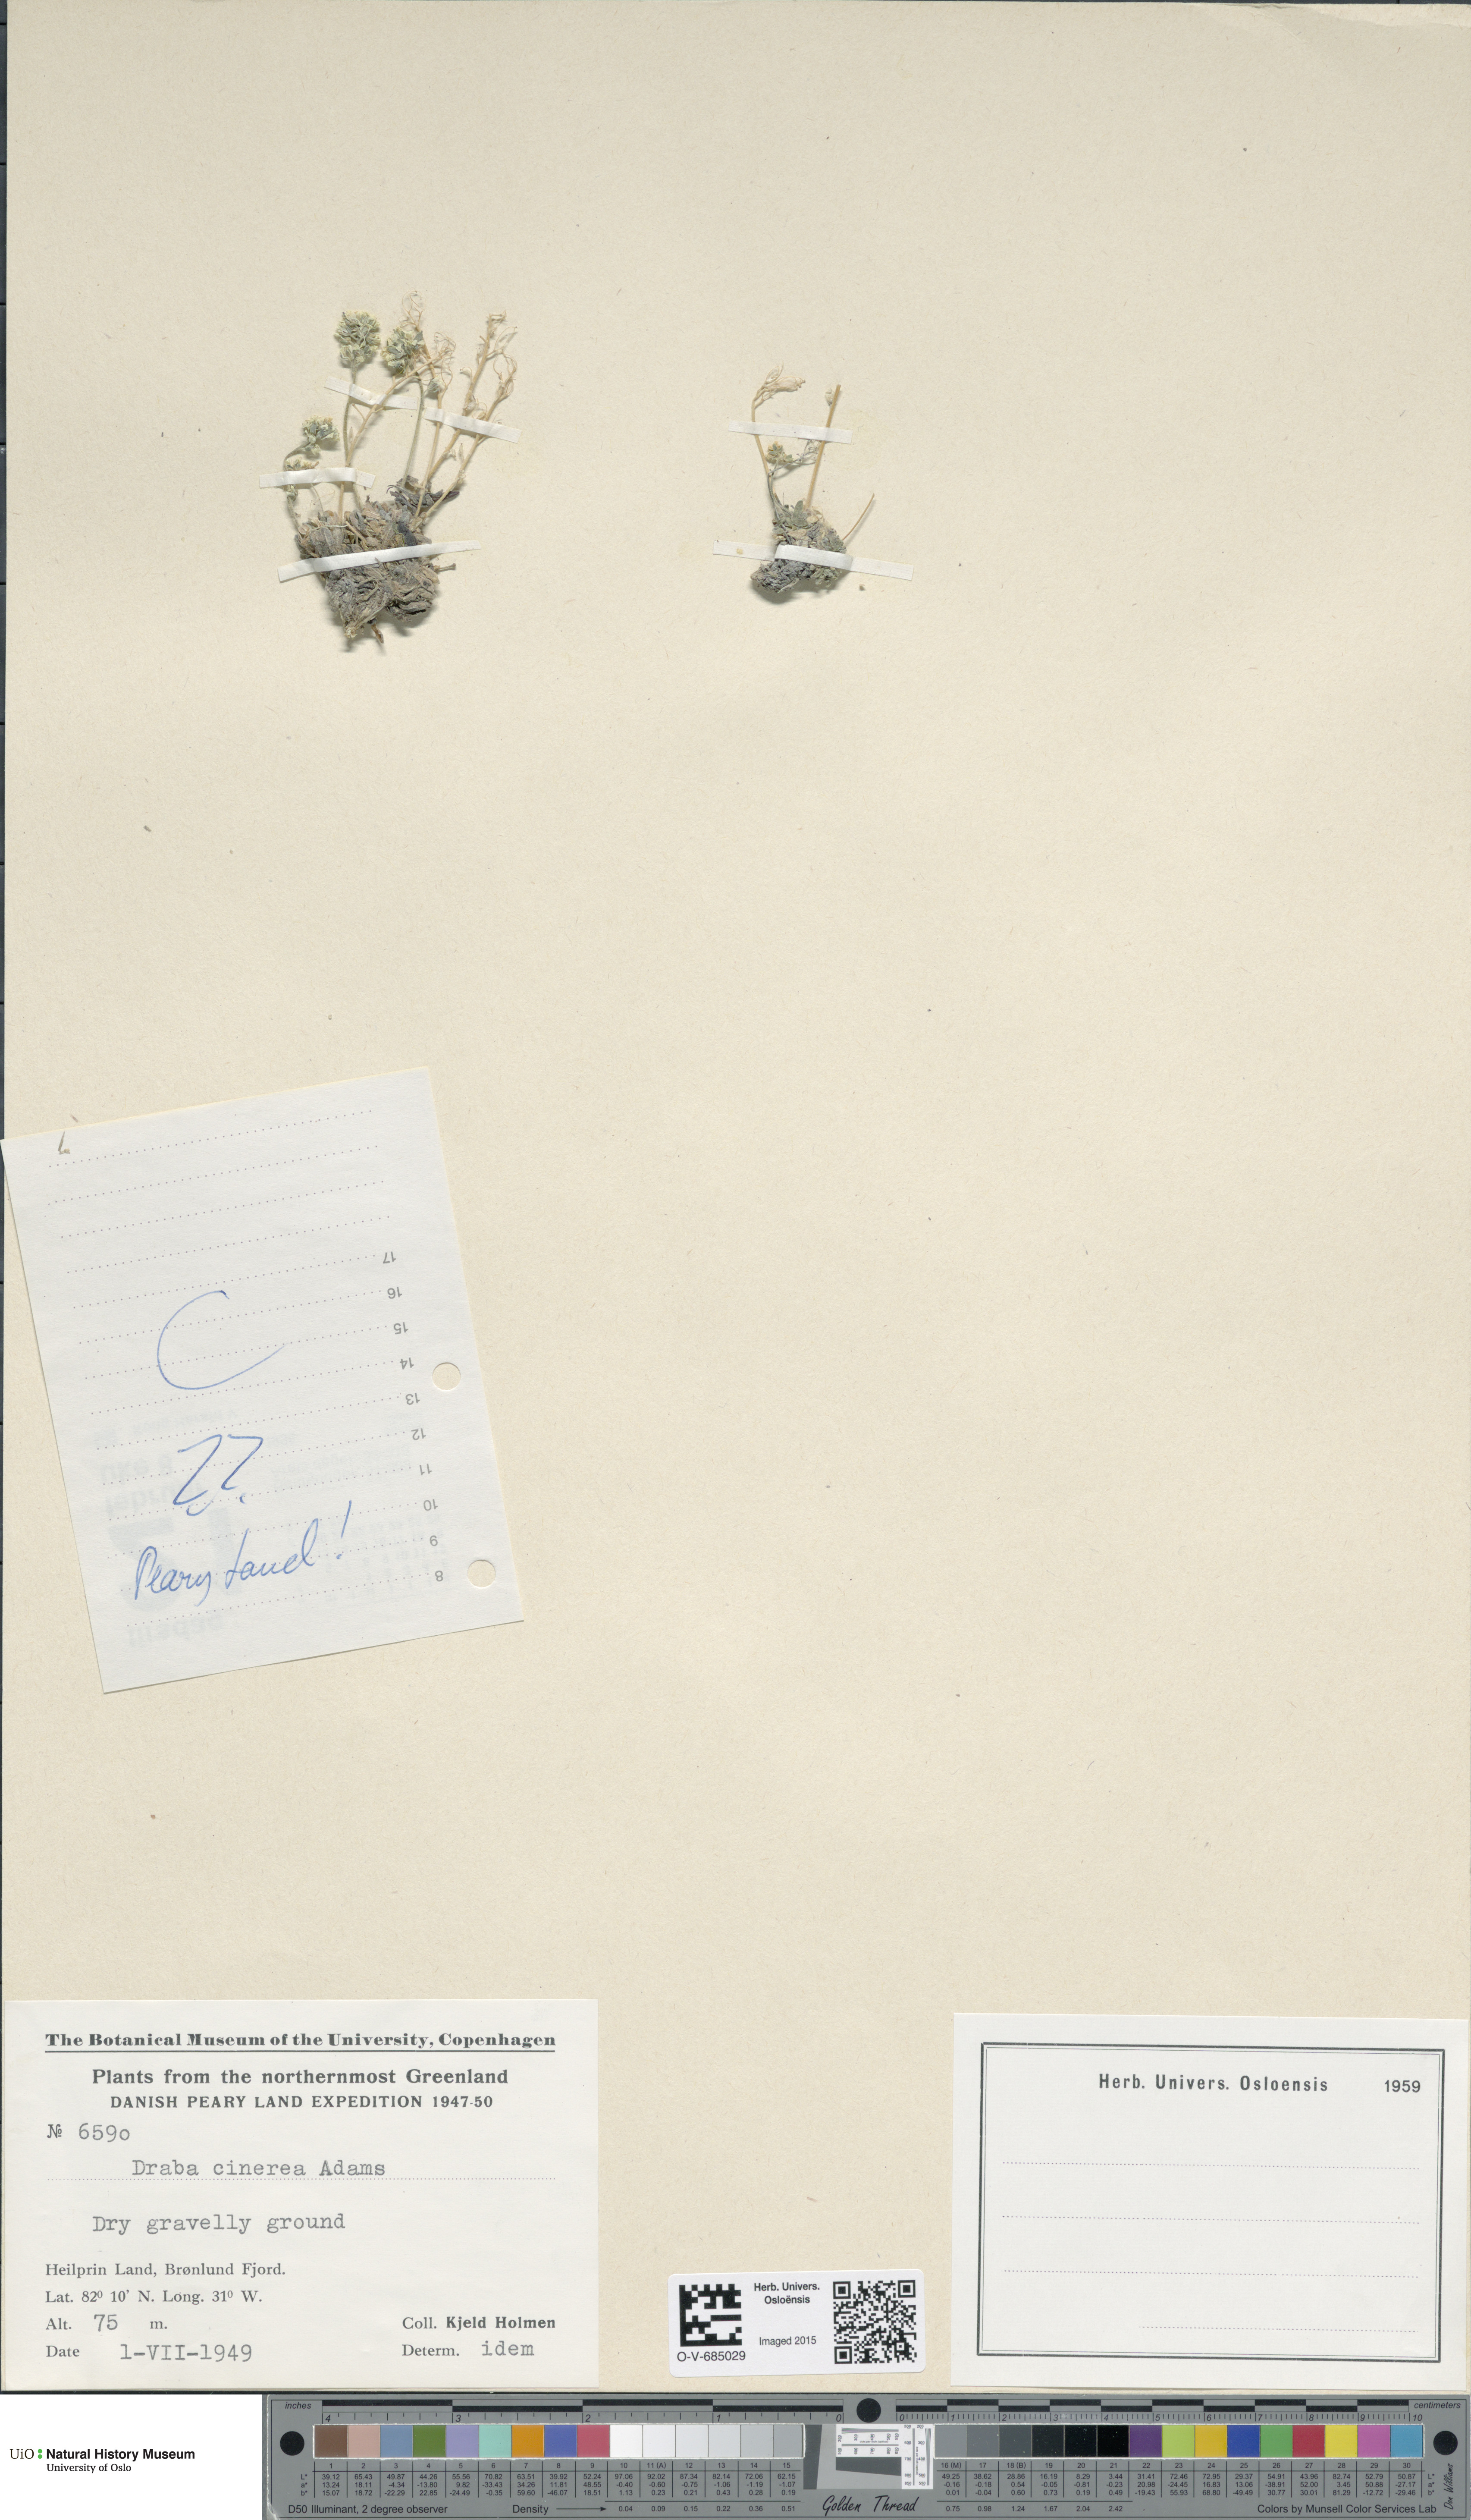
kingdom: Plantae
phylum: Tracheophyta
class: Magnoliopsida
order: Brassicales
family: Brassicaceae
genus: Draba
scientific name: Draba cinerea
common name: Ash-coloured whitlow-grass
